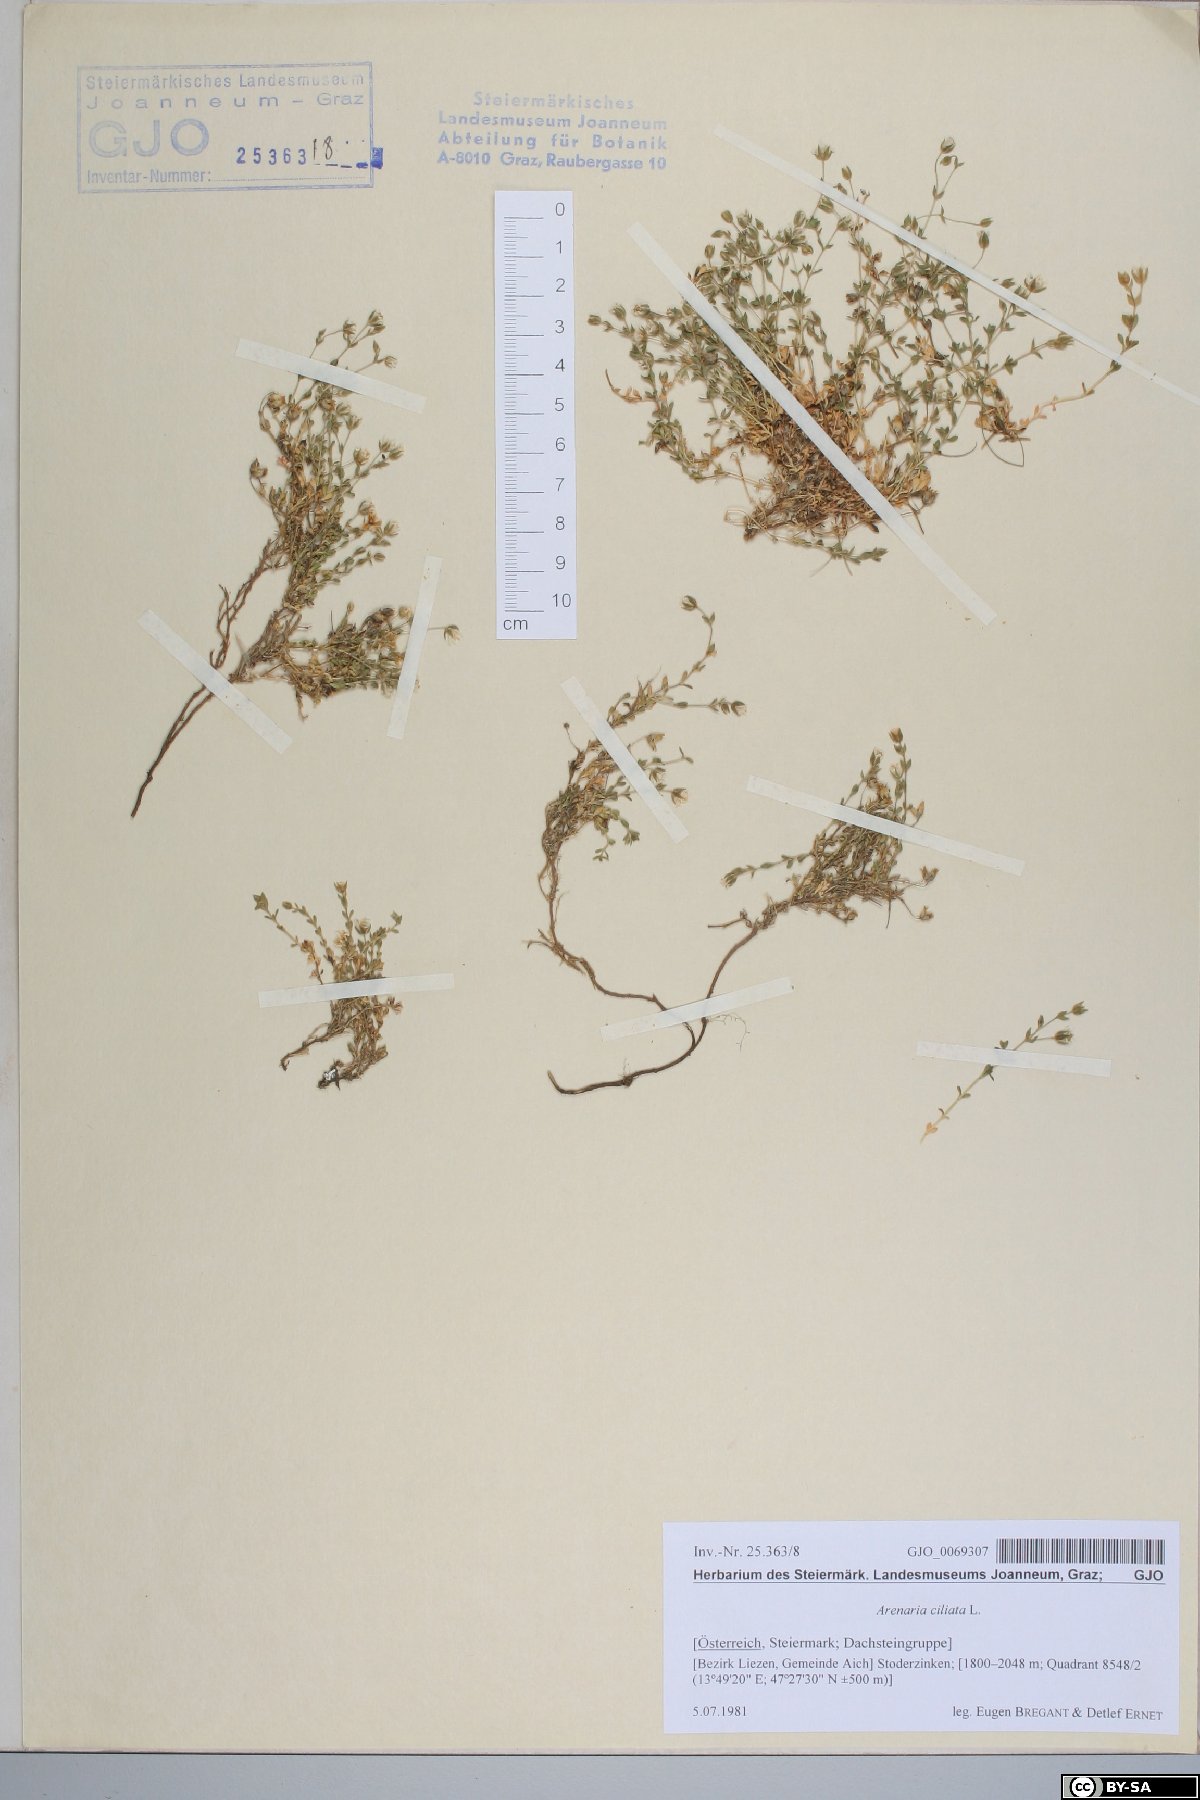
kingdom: Plantae
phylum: Tracheophyta
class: Magnoliopsida
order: Caryophyllales
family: Caryophyllaceae
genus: Arenaria
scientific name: Arenaria ciliata
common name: Fringed sandwort
